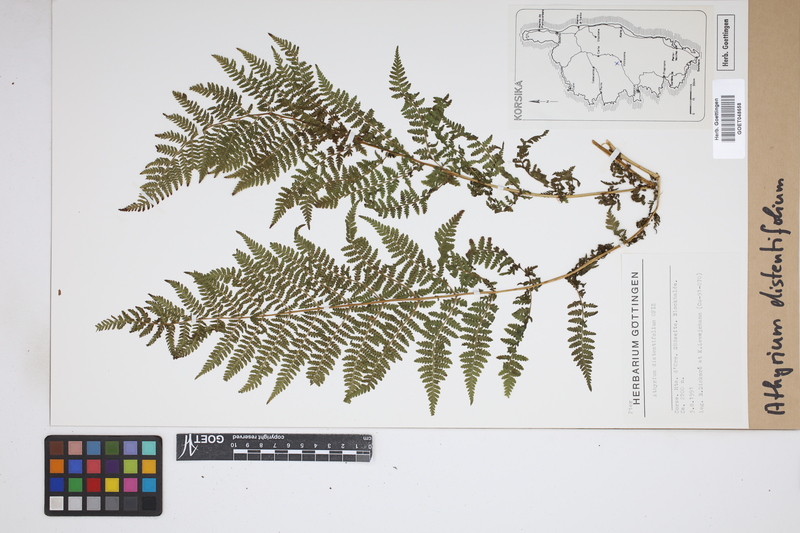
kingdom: Plantae
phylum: Tracheophyta
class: Polypodiopsida
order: Polypodiales
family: Athyriaceae
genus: Pseudathyrium
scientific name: Pseudathyrium alpestre
